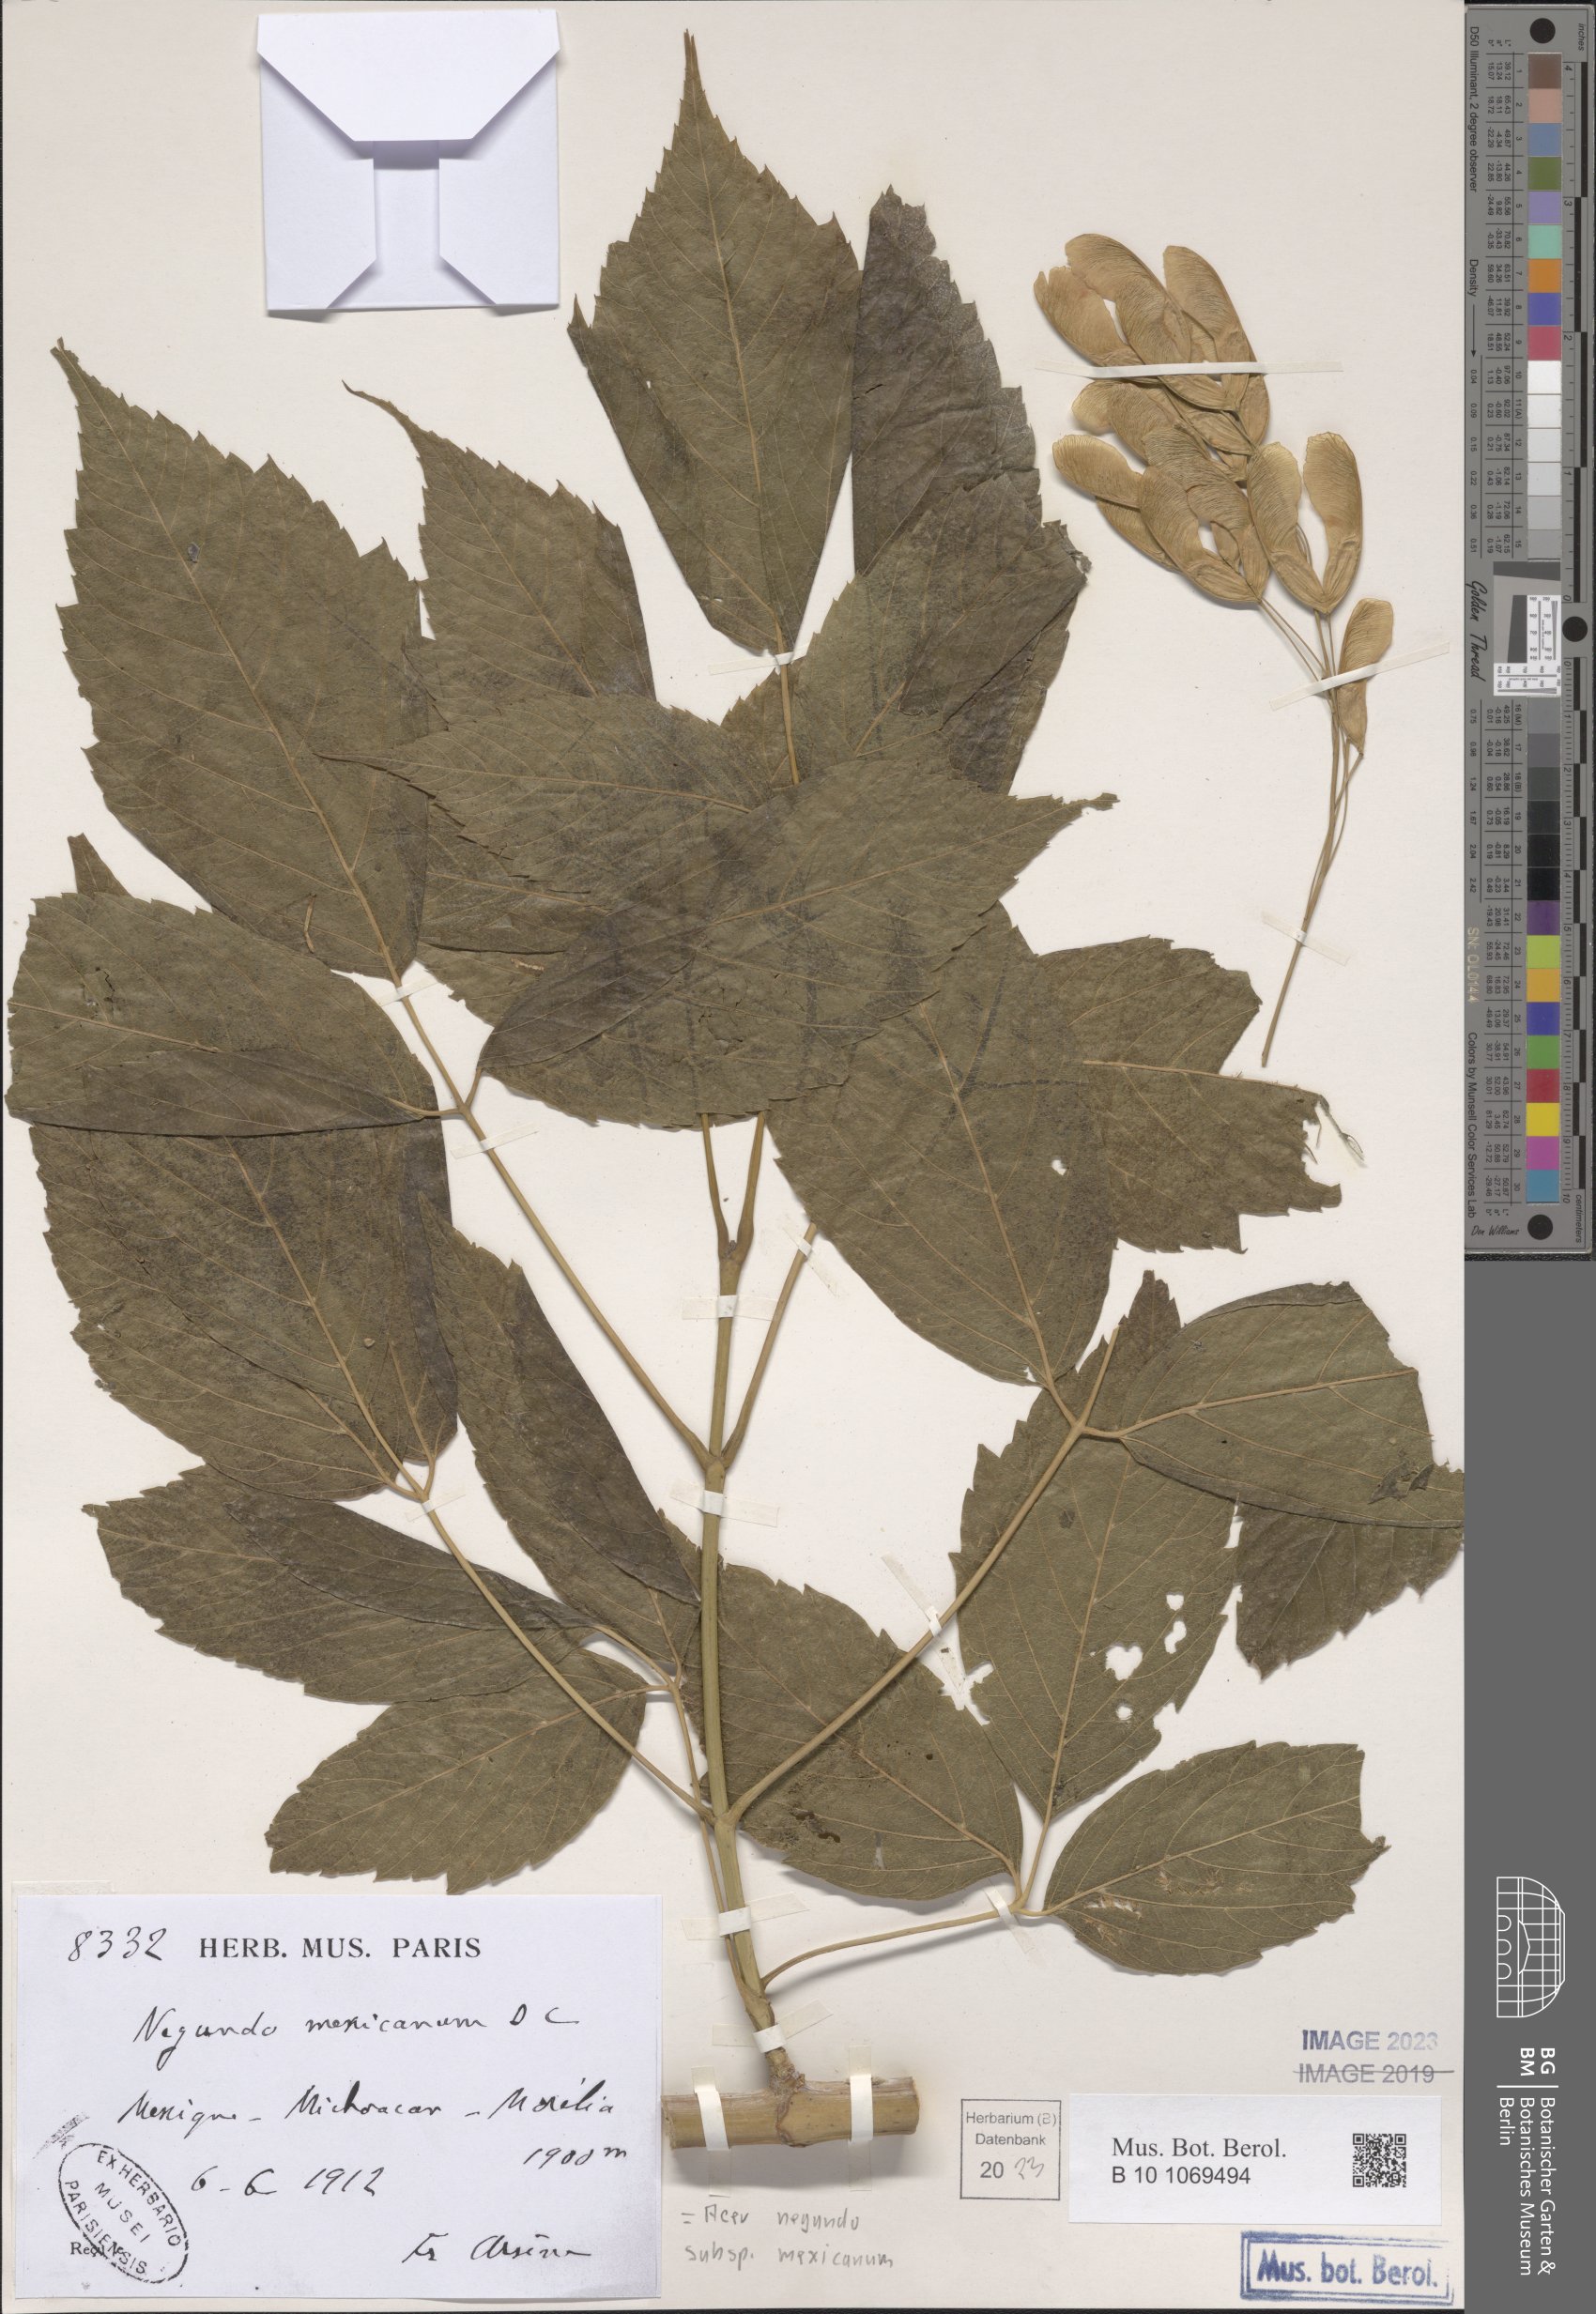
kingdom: Plantae
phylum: Tracheophyta
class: Magnoliopsida
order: Sapindales
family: Sapindaceae
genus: Acer
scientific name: Acer negundo
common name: Ashleaf maple
